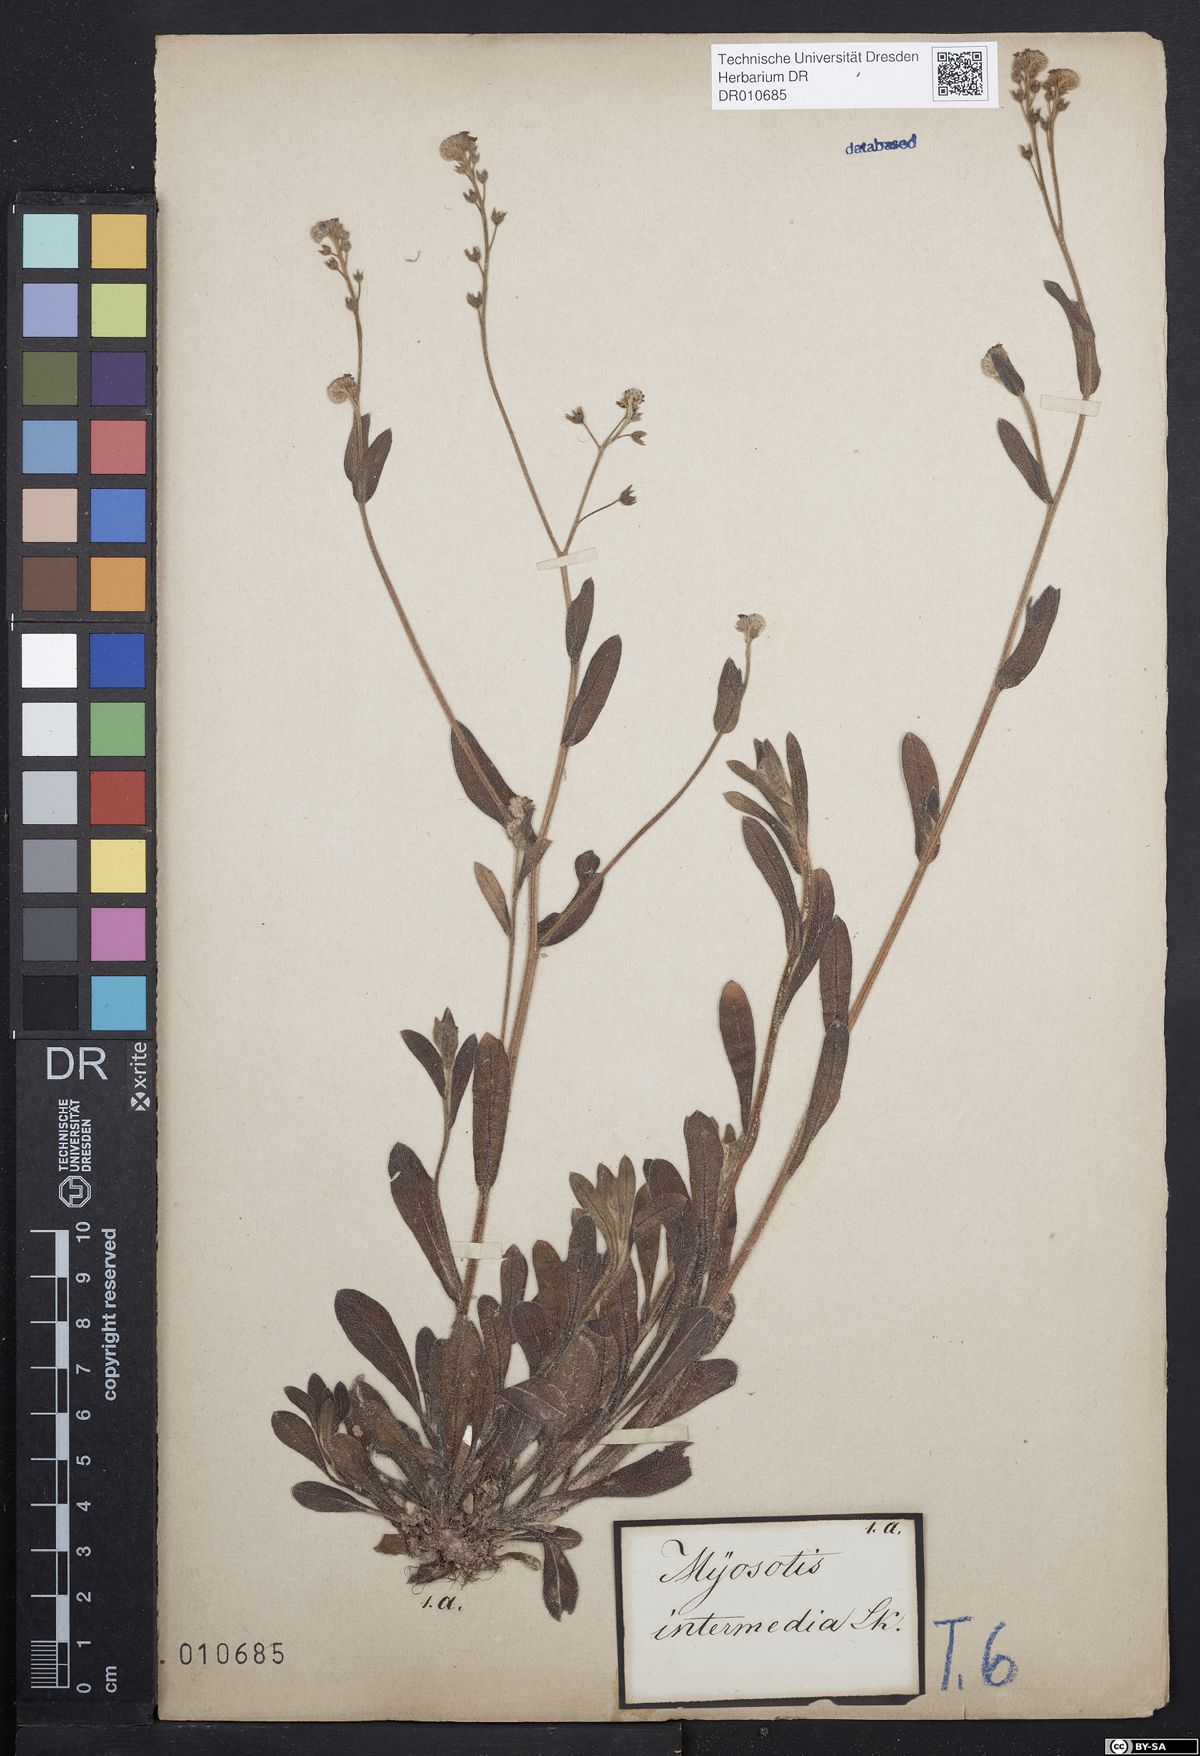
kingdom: Plantae
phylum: Tracheophyta
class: Magnoliopsida
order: Boraginales
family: Boraginaceae
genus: Myosotis
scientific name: Myosotis arvensis
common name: Field forget-me-not
